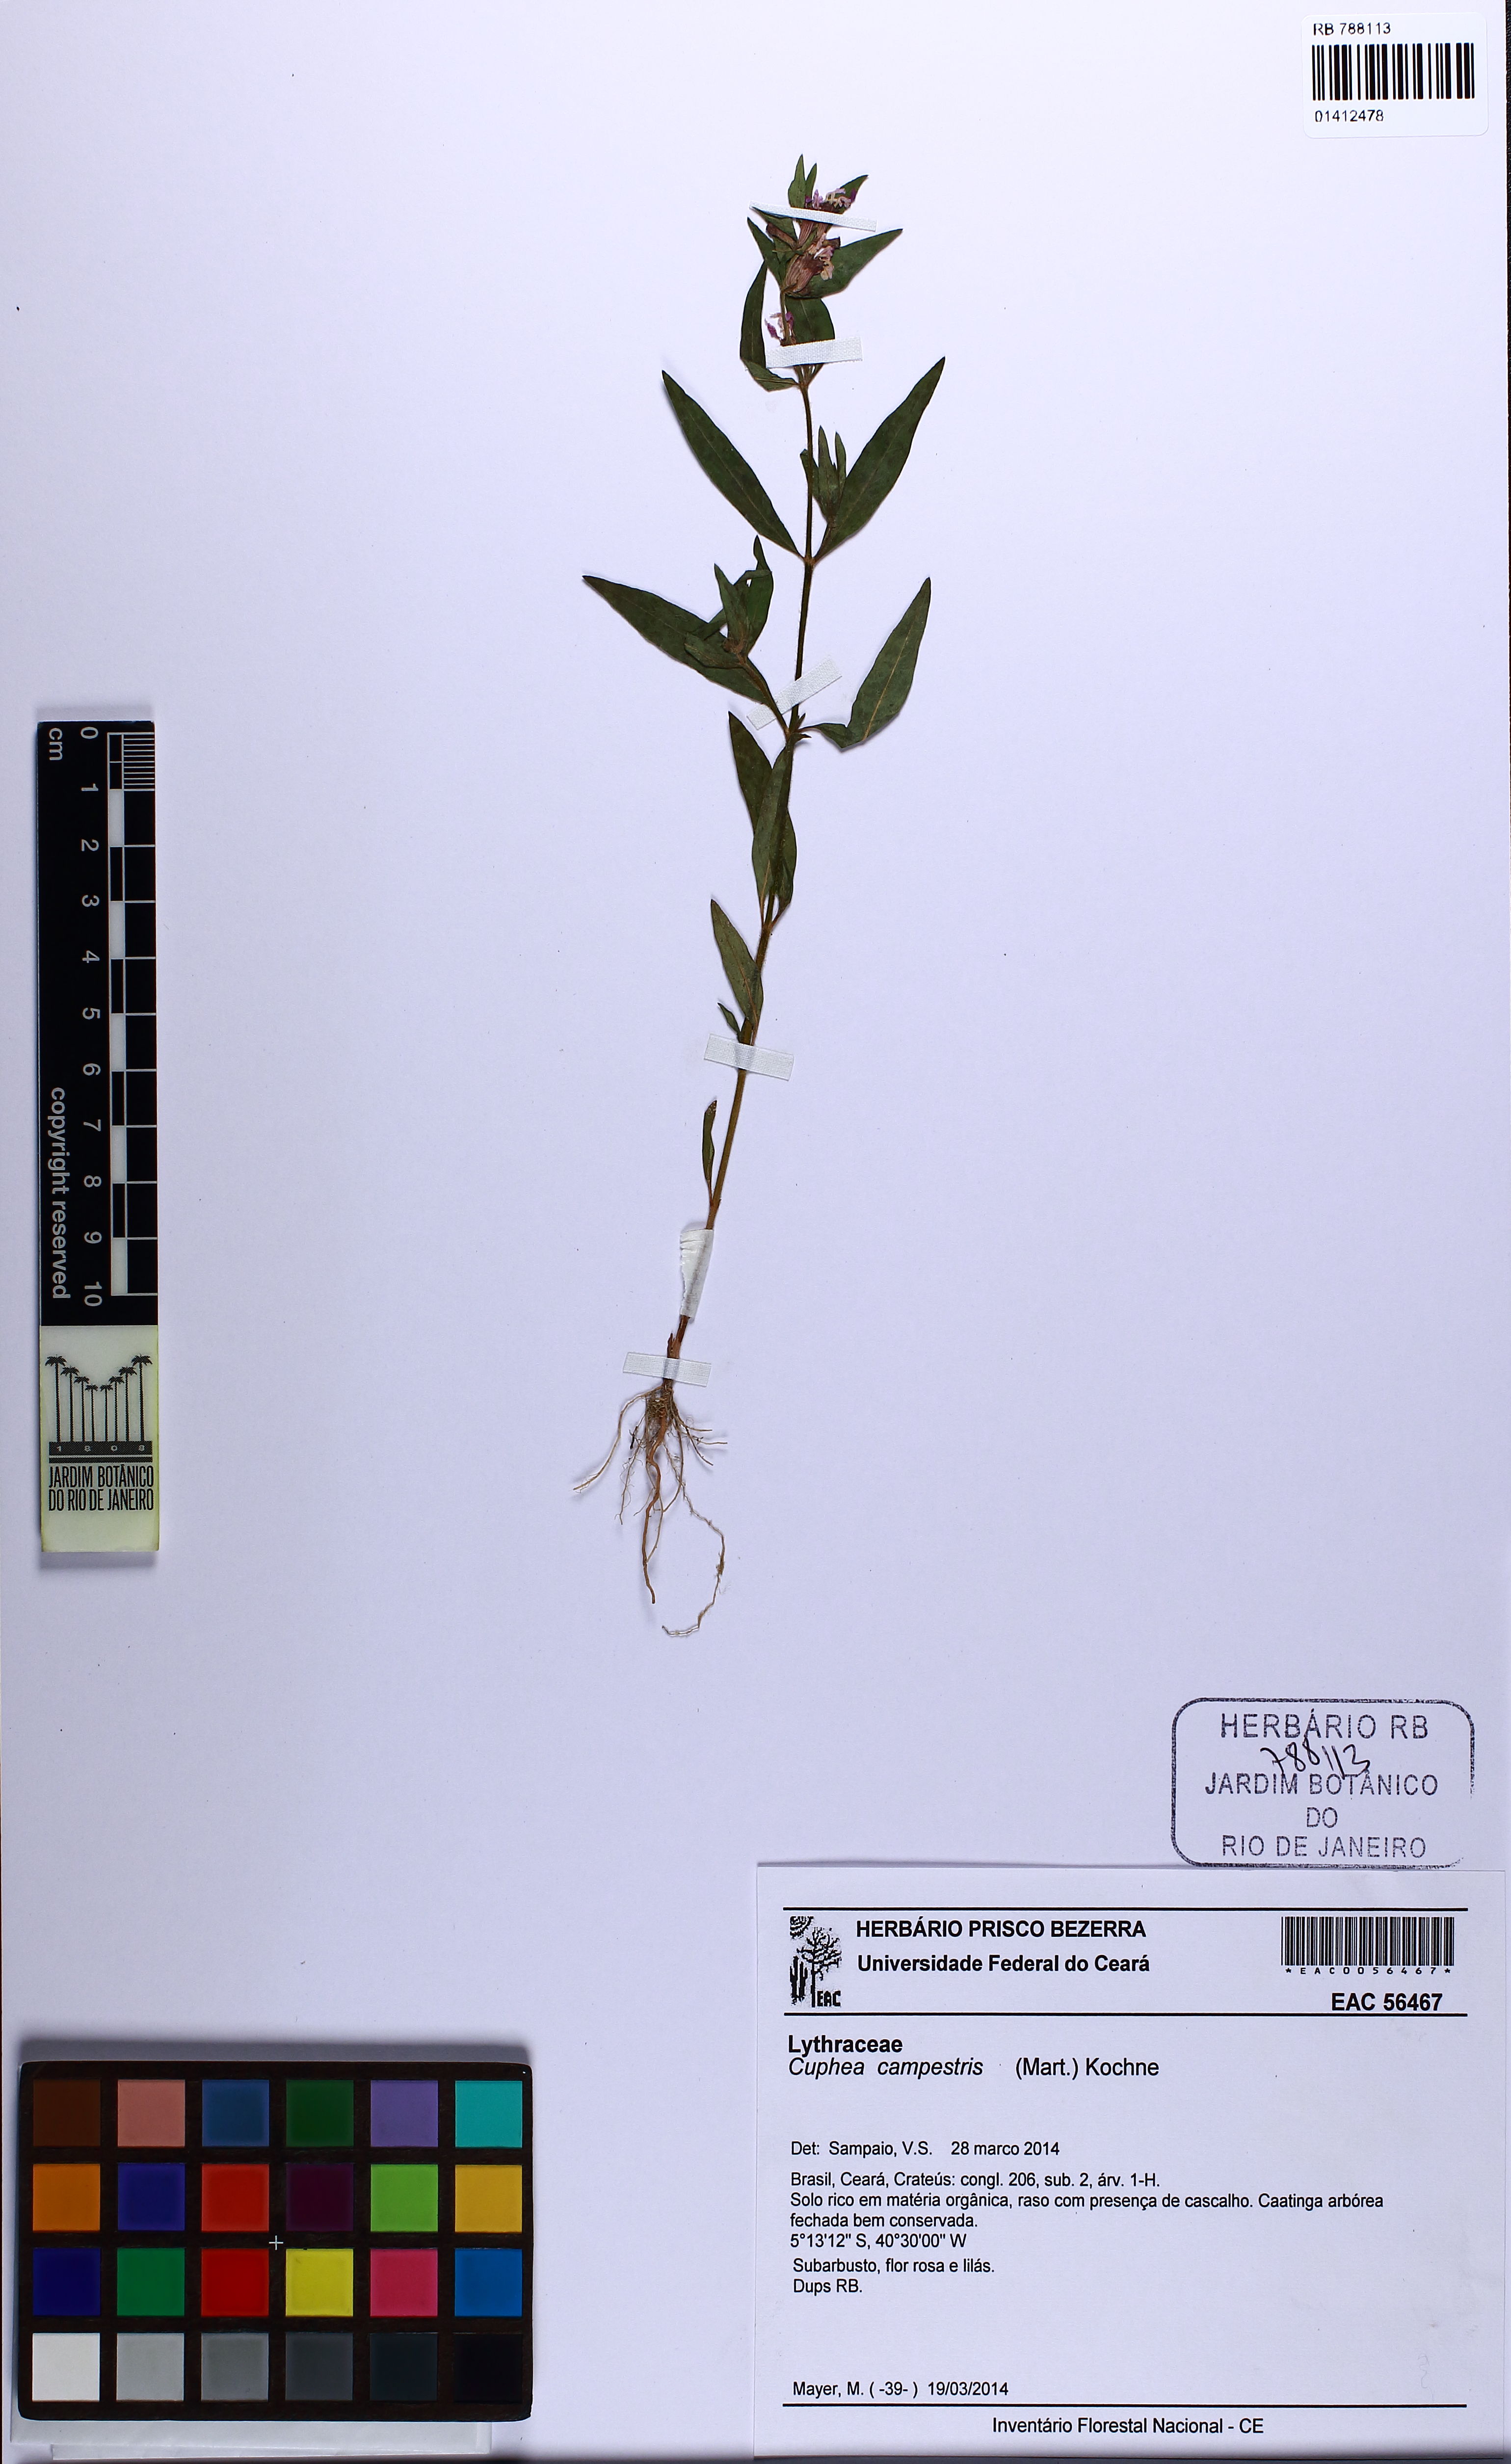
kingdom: Plantae
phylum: Tracheophyta
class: Magnoliopsida
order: Myrtales
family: Lythraceae
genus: Cuphea
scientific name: Cuphea campestris
